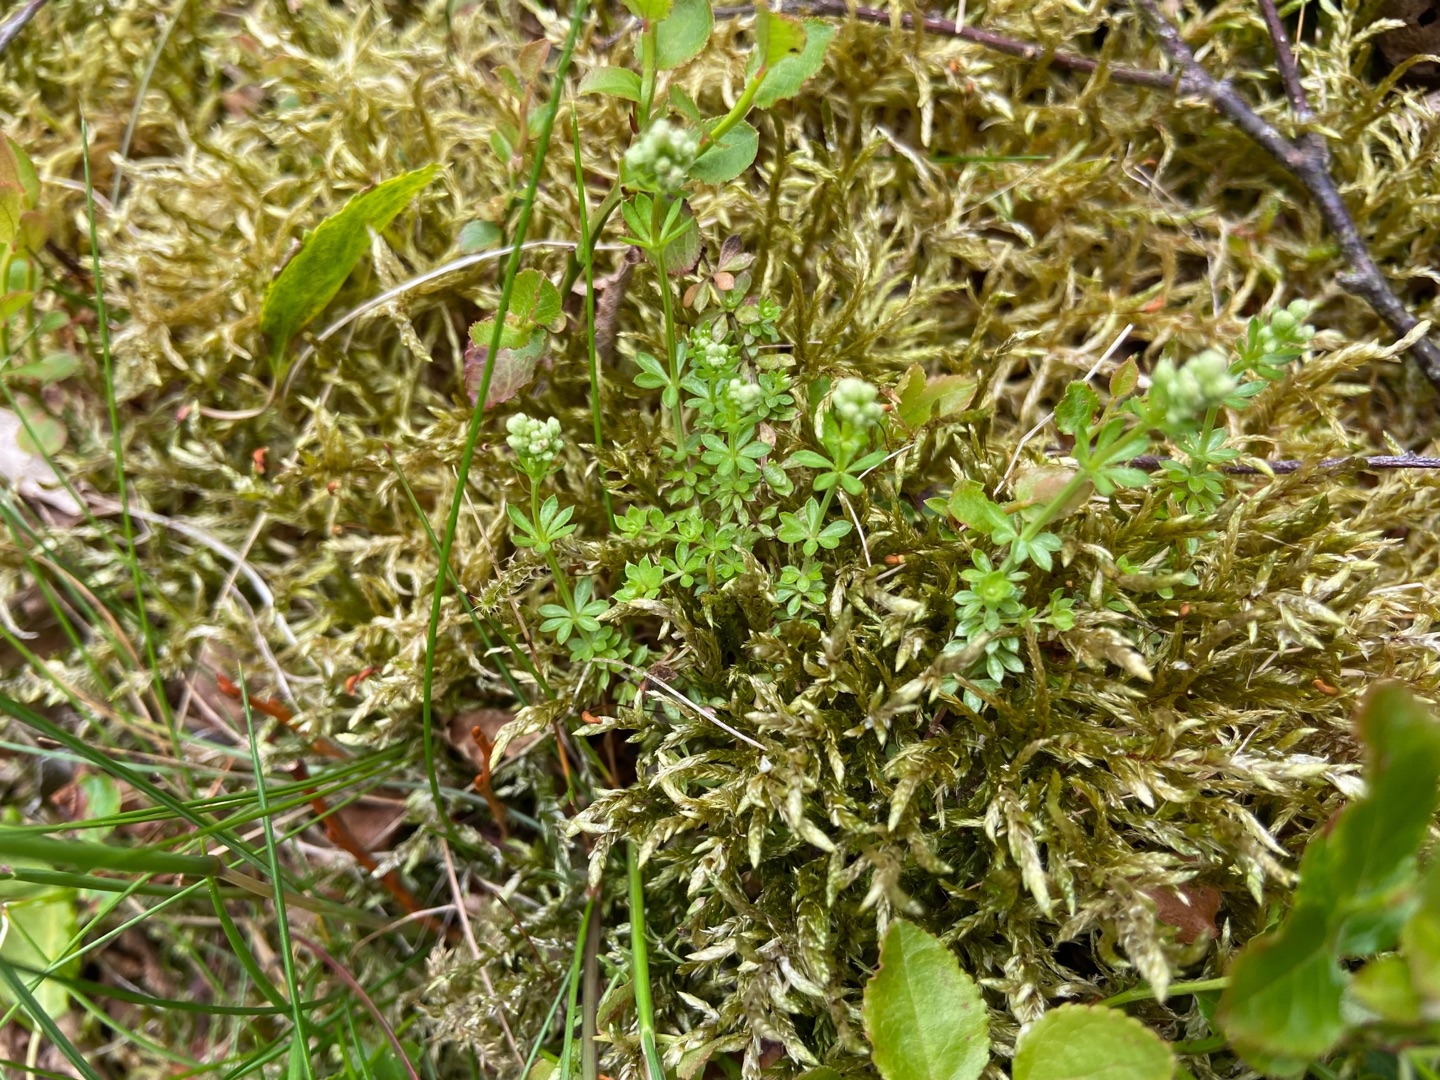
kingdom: Plantae
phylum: Tracheophyta
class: Magnoliopsida
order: Gentianales
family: Rubiaceae
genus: Galium
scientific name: Galium saxatile
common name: Lyng-snerre
